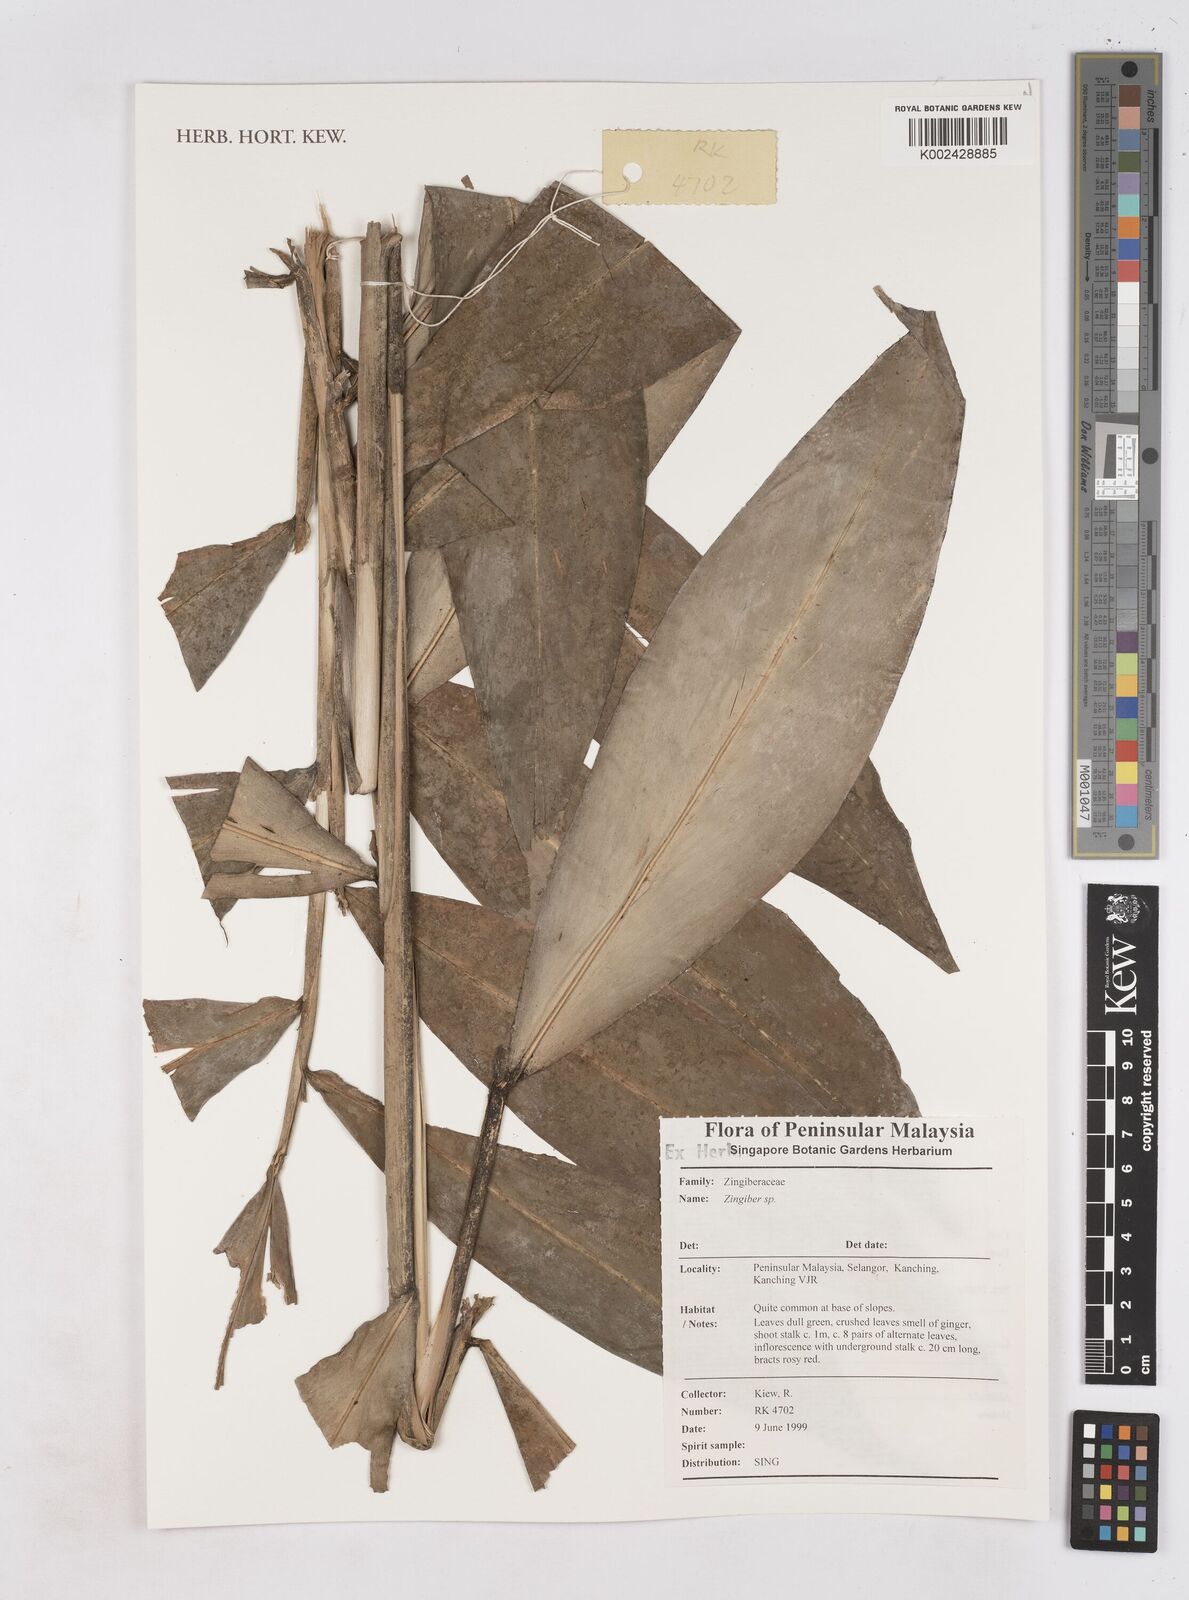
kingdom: Plantae
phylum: Tracheophyta
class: Liliopsida
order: Zingiberales
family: Zingiberaceae
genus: Zingiber
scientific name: Zingiber
